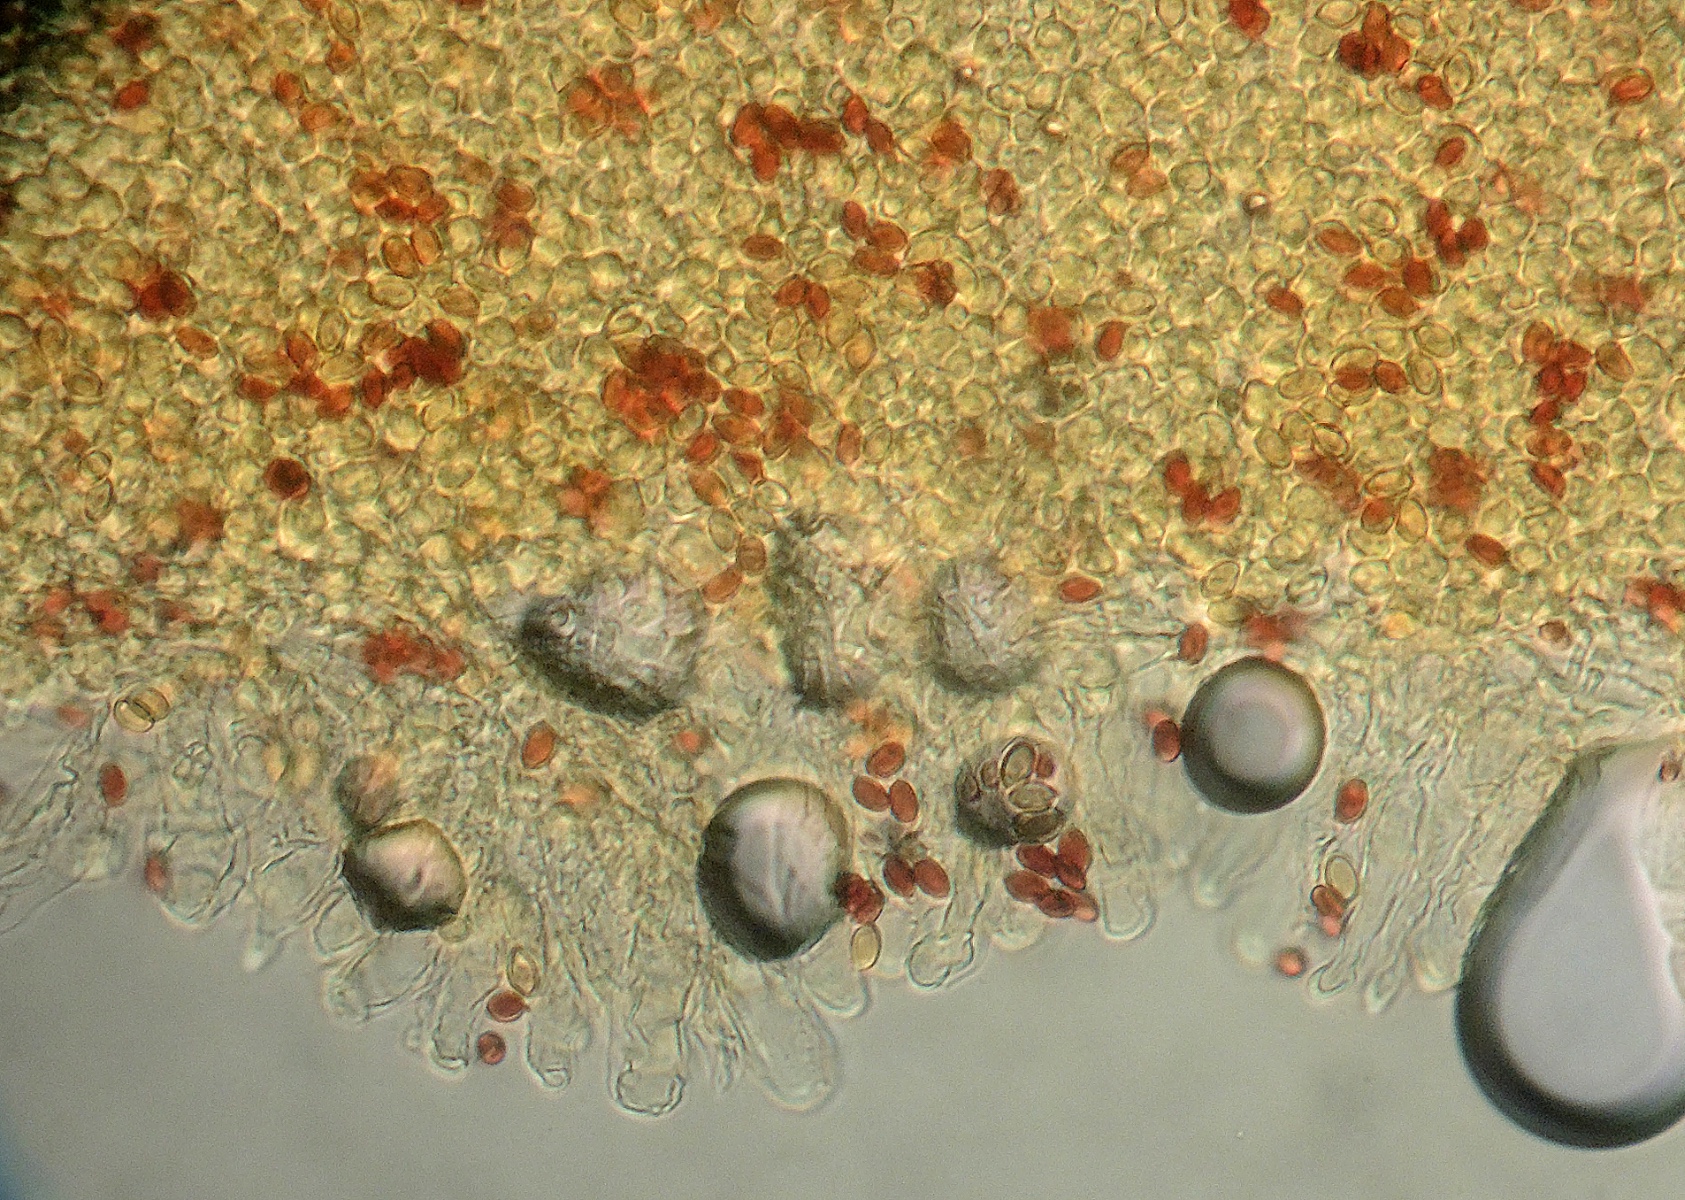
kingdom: Fungi
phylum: Basidiomycota
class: Agaricomycetes
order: Agaricales
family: Agaricaceae
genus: Leucoagaricus
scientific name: Leucoagaricus melanotrichus
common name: gråhåret silkehat
